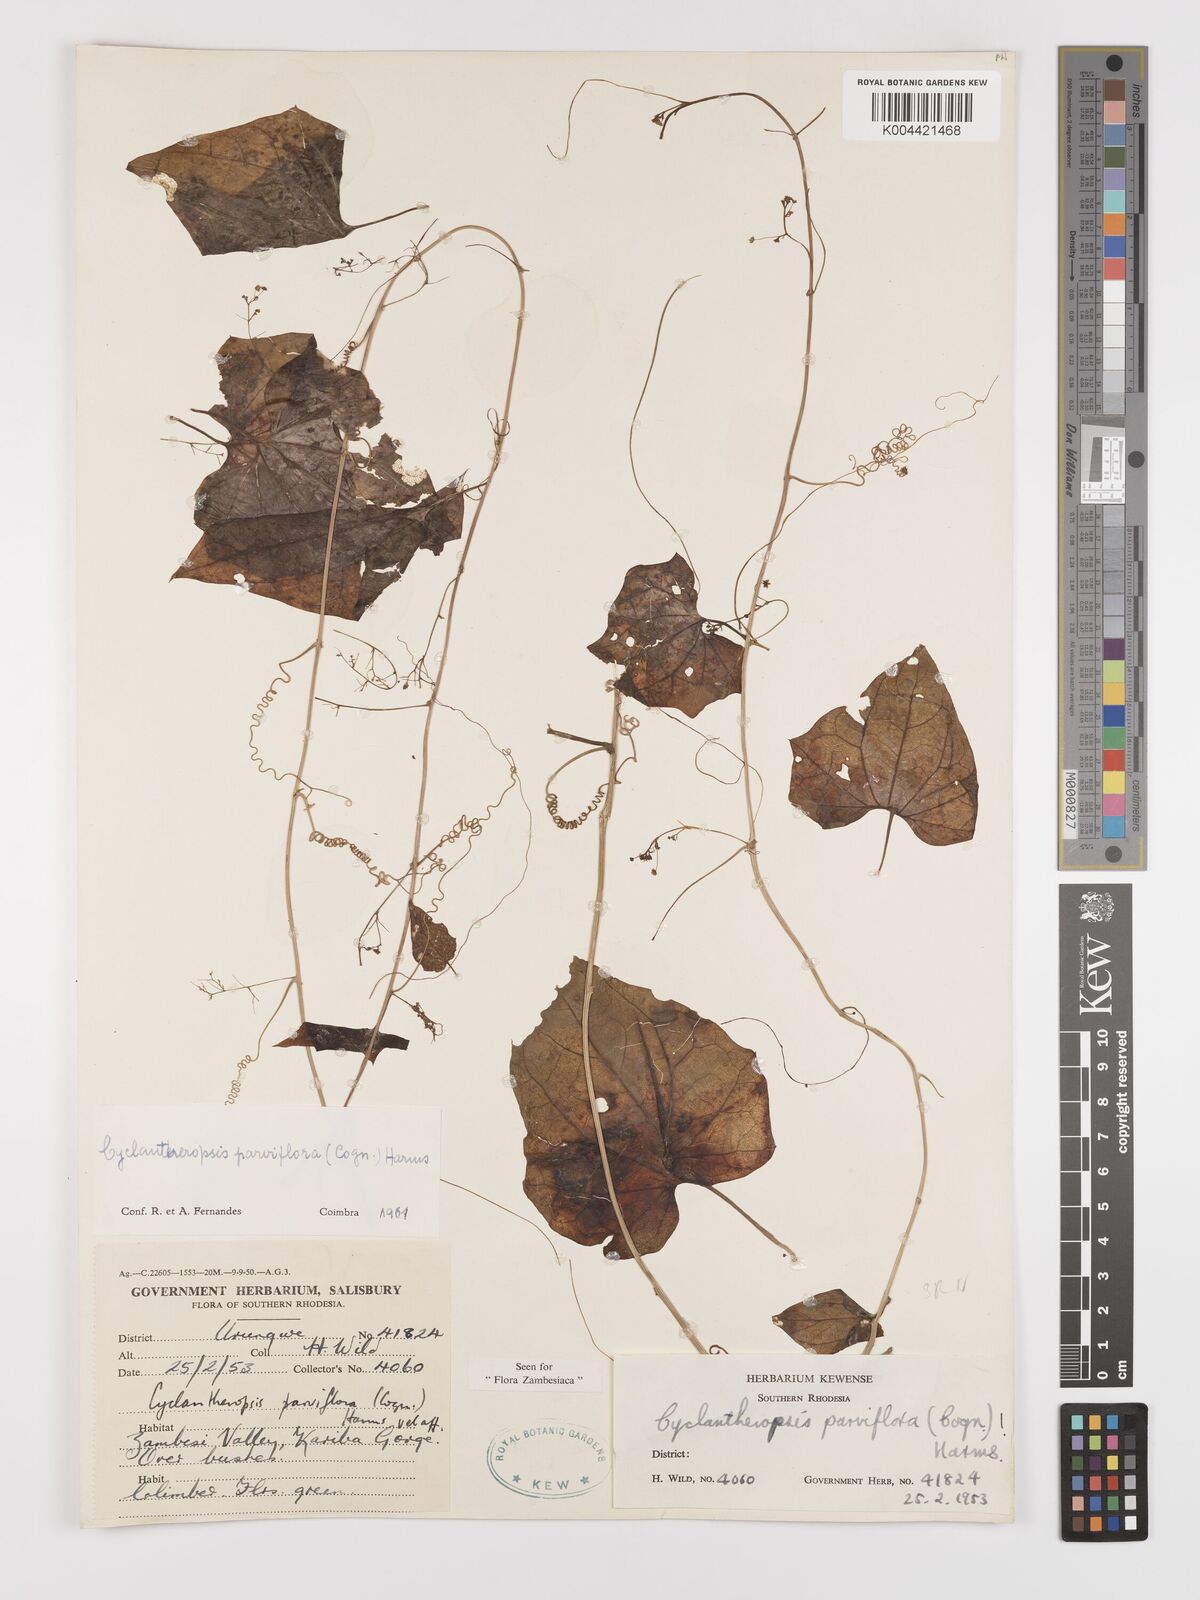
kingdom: Plantae
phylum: Tracheophyta
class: Magnoliopsida
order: Cucurbitales
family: Cucurbitaceae
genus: Cyclantheropsis
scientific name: Cyclantheropsis parviflora
